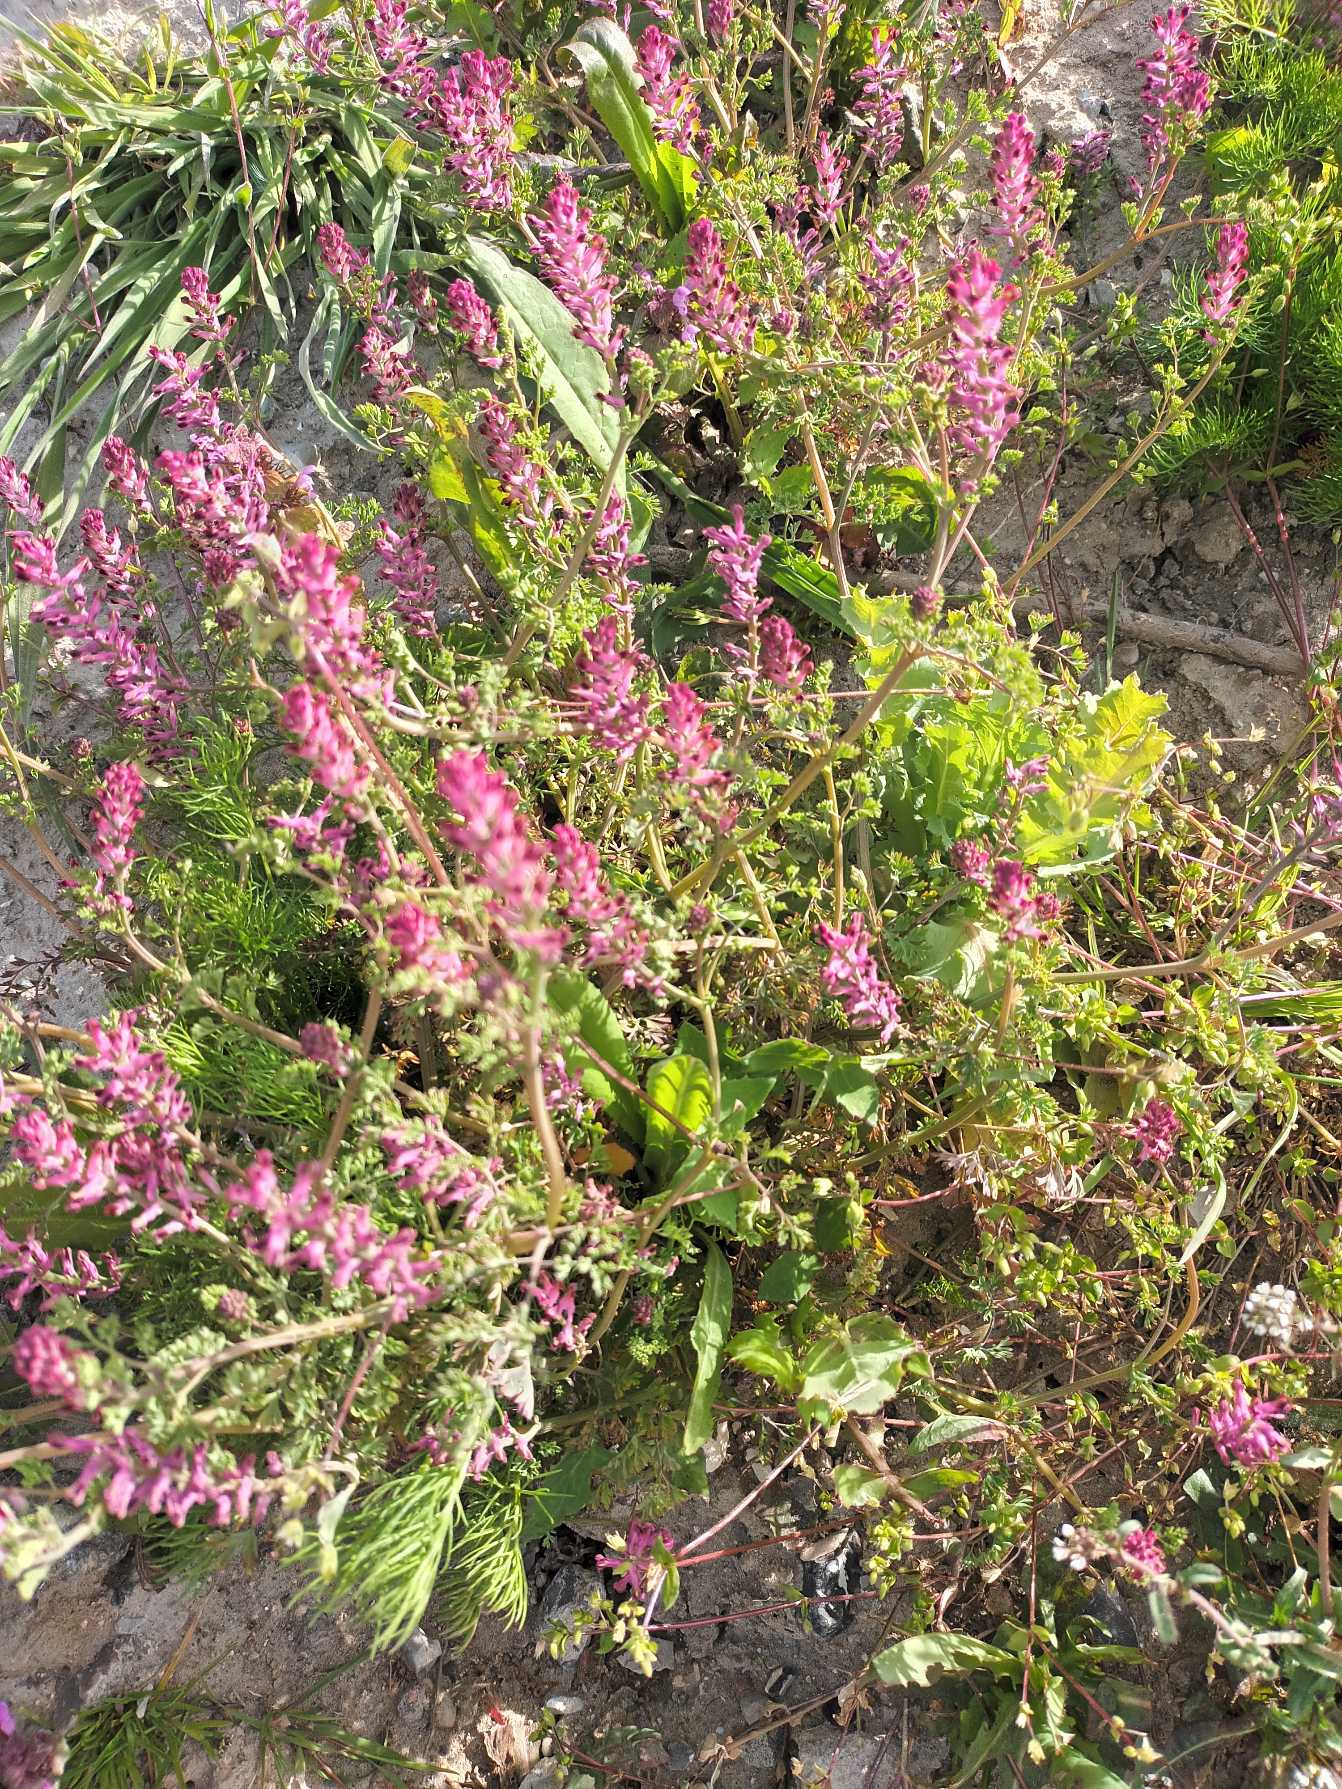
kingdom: Plantae
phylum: Tracheophyta
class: Magnoliopsida
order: Ranunculales
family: Papaveraceae
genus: Fumaria
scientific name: Fumaria officinalis
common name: Læge-jordrøg
